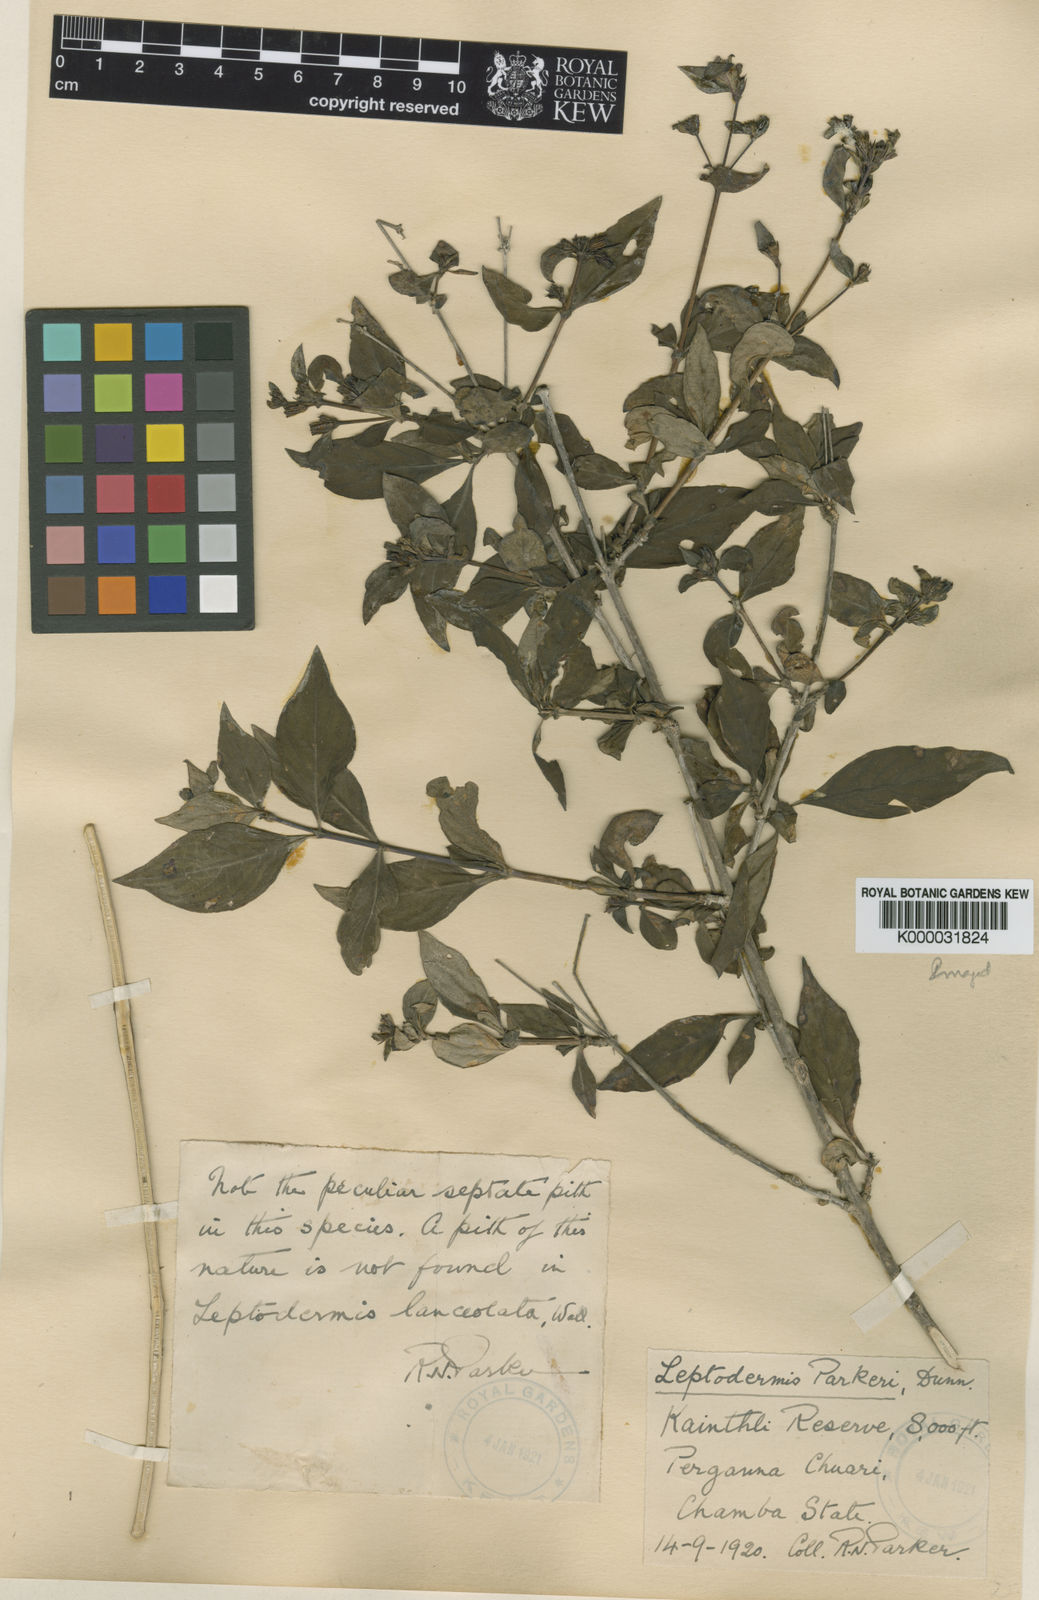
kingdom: Plantae
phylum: Tracheophyta
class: Magnoliopsida
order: Gentianales
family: Rubiaceae
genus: Leptodermis
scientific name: Leptodermis kumaonensis
